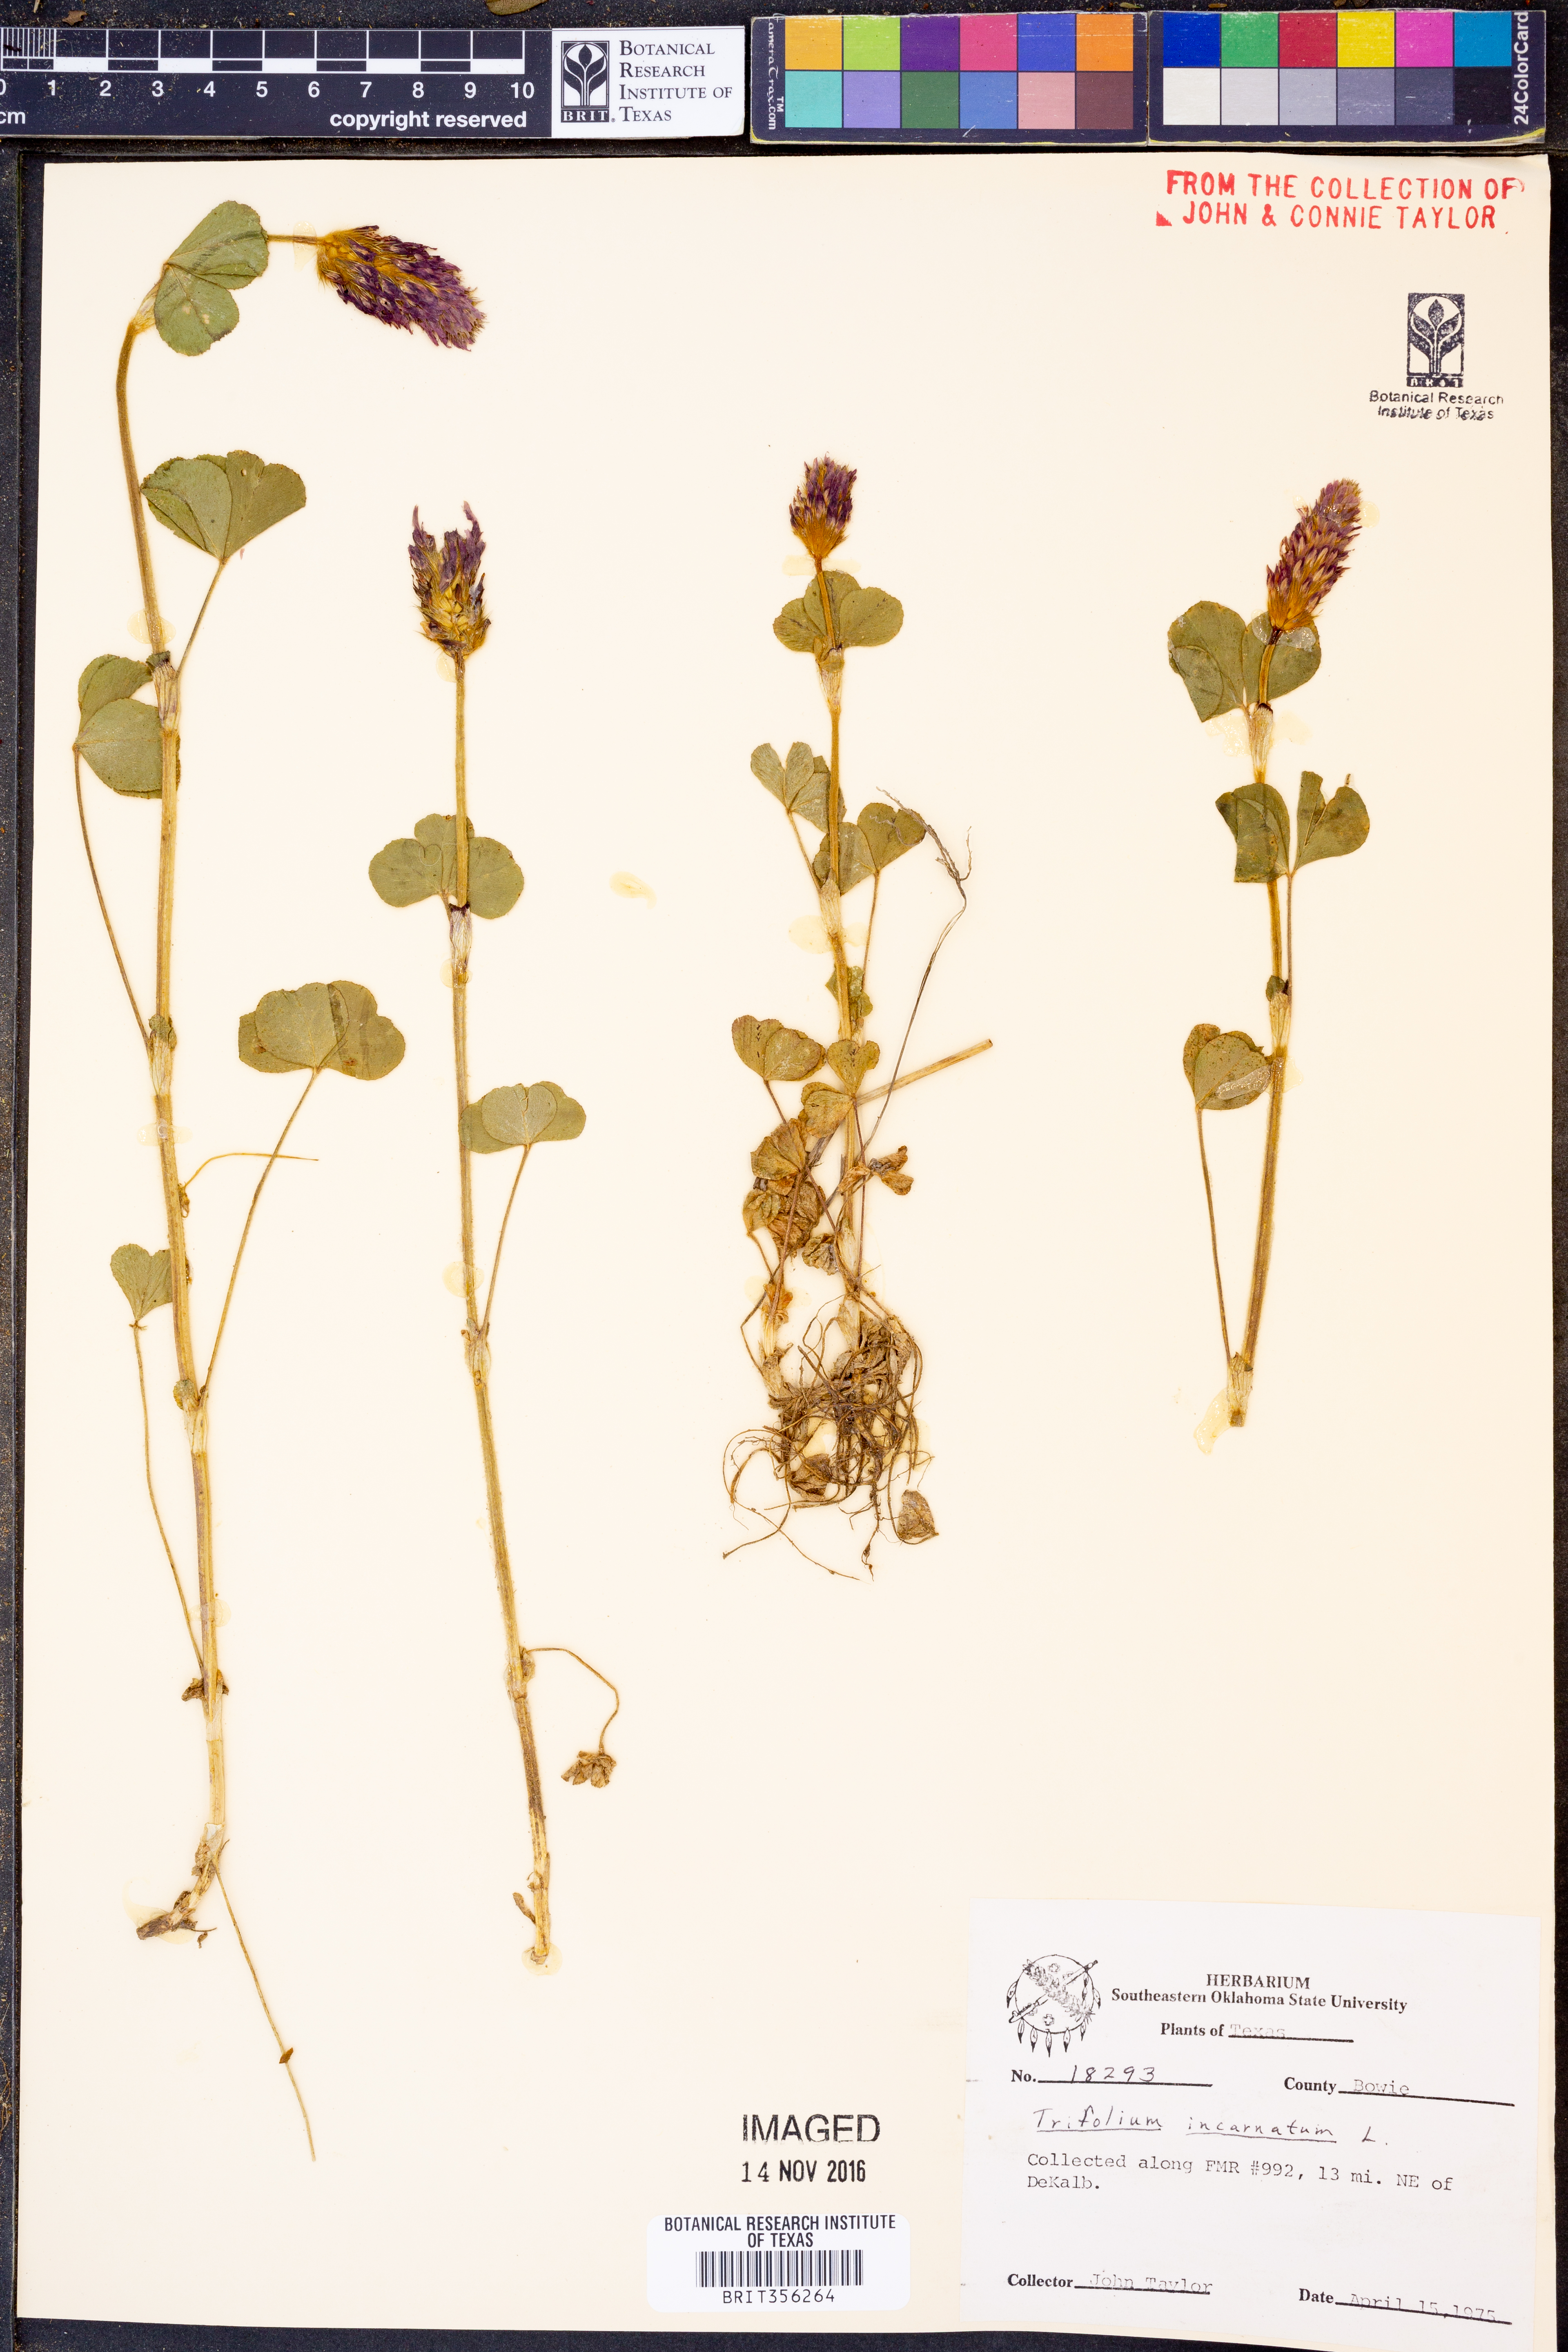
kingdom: Plantae
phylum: Tracheophyta
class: Magnoliopsida
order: Fabales
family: Fabaceae
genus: Trifolium
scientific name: Trifolium incarnatum
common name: Crimson clover
